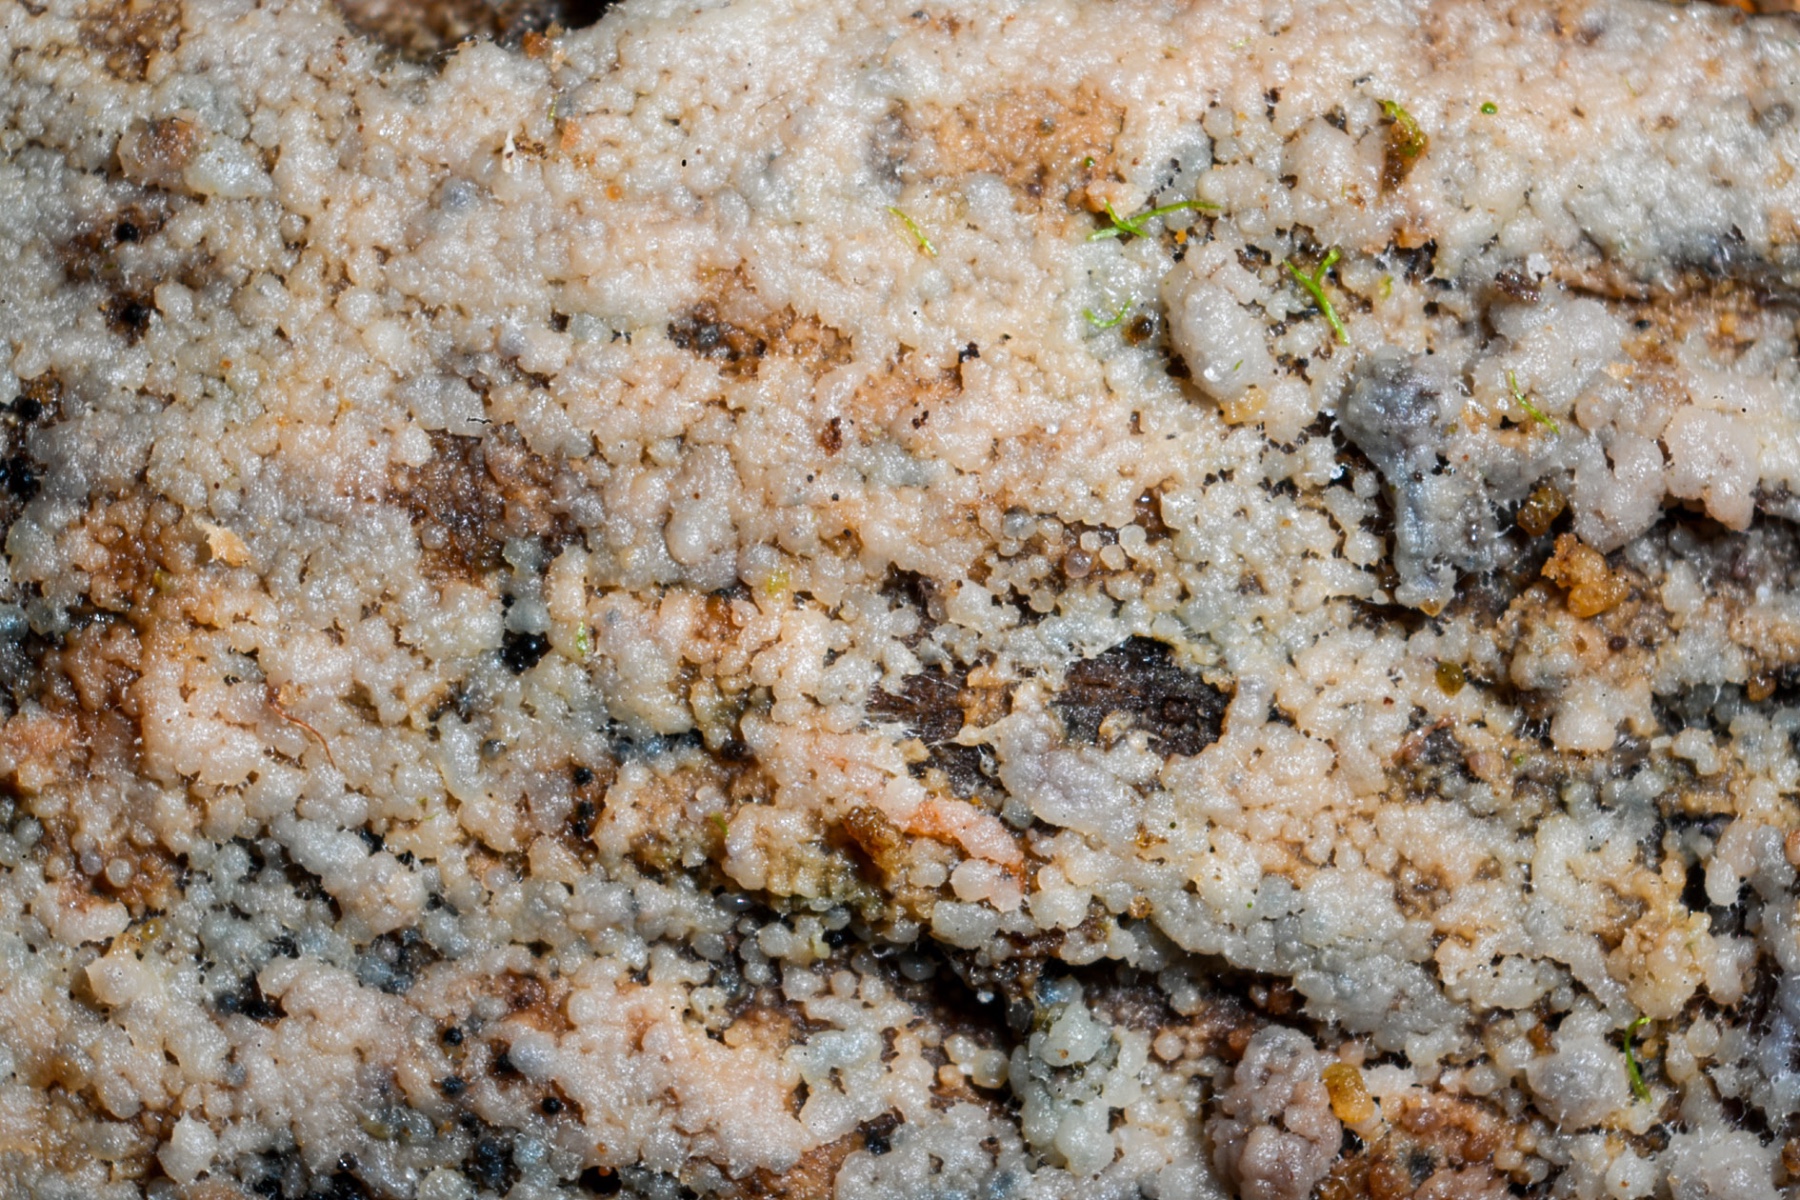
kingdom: Fungi
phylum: Basidiomycota
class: Agaricomycetes
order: Sebacinales
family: Sebacinaceae
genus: Sebacina
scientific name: Sebacina dimitica
